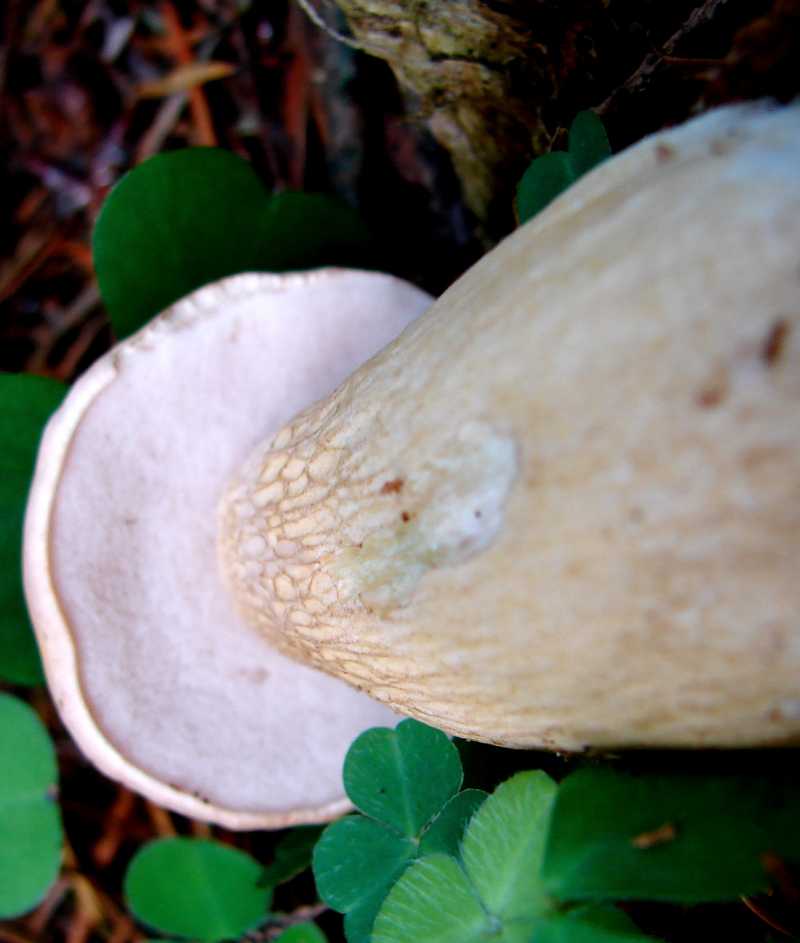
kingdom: Fungi
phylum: Basidiomycota
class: Agaricomycetes
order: Boletales
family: Boletaceae
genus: Tylopilus
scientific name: Tylopilus felleus
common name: galderørhat
